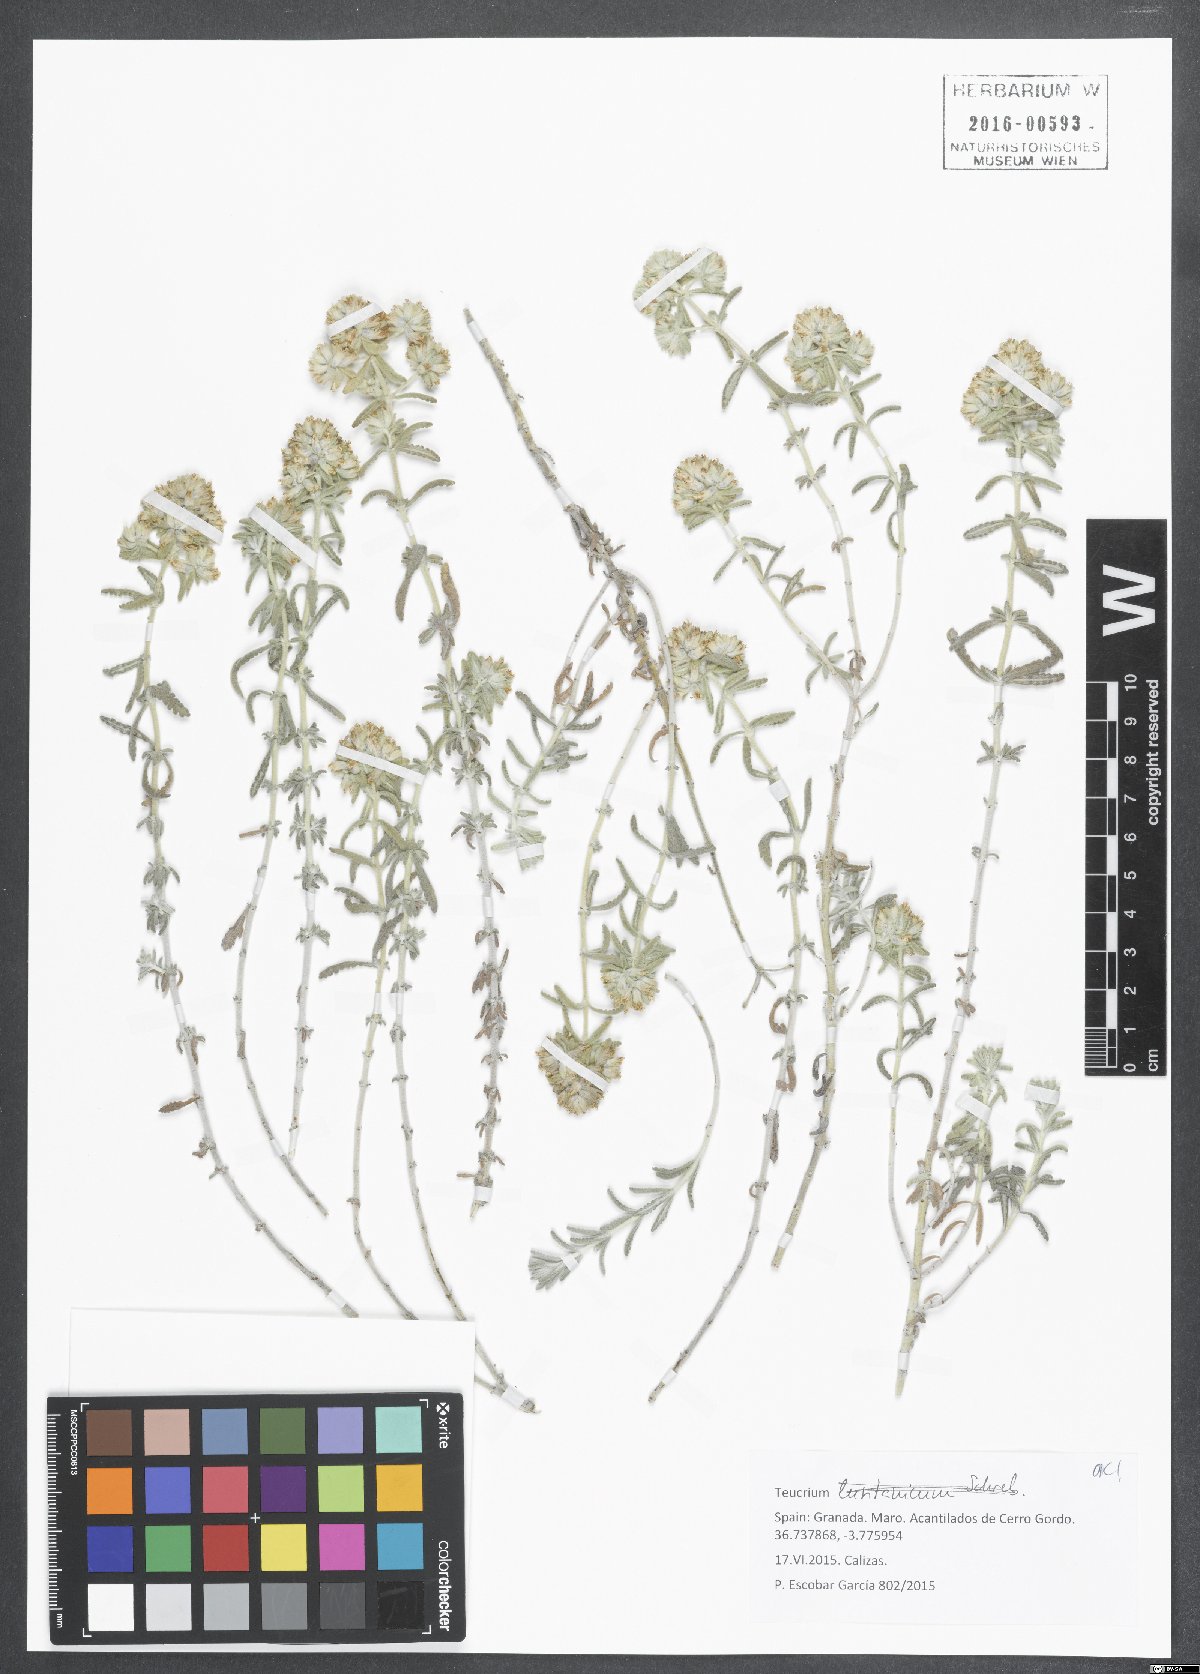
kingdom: Plantae
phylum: Tracheophyta
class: Magnoliopsida
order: Lamiales
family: Lamiaceae
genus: Teucrium
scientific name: Teucrium lusitanicum
